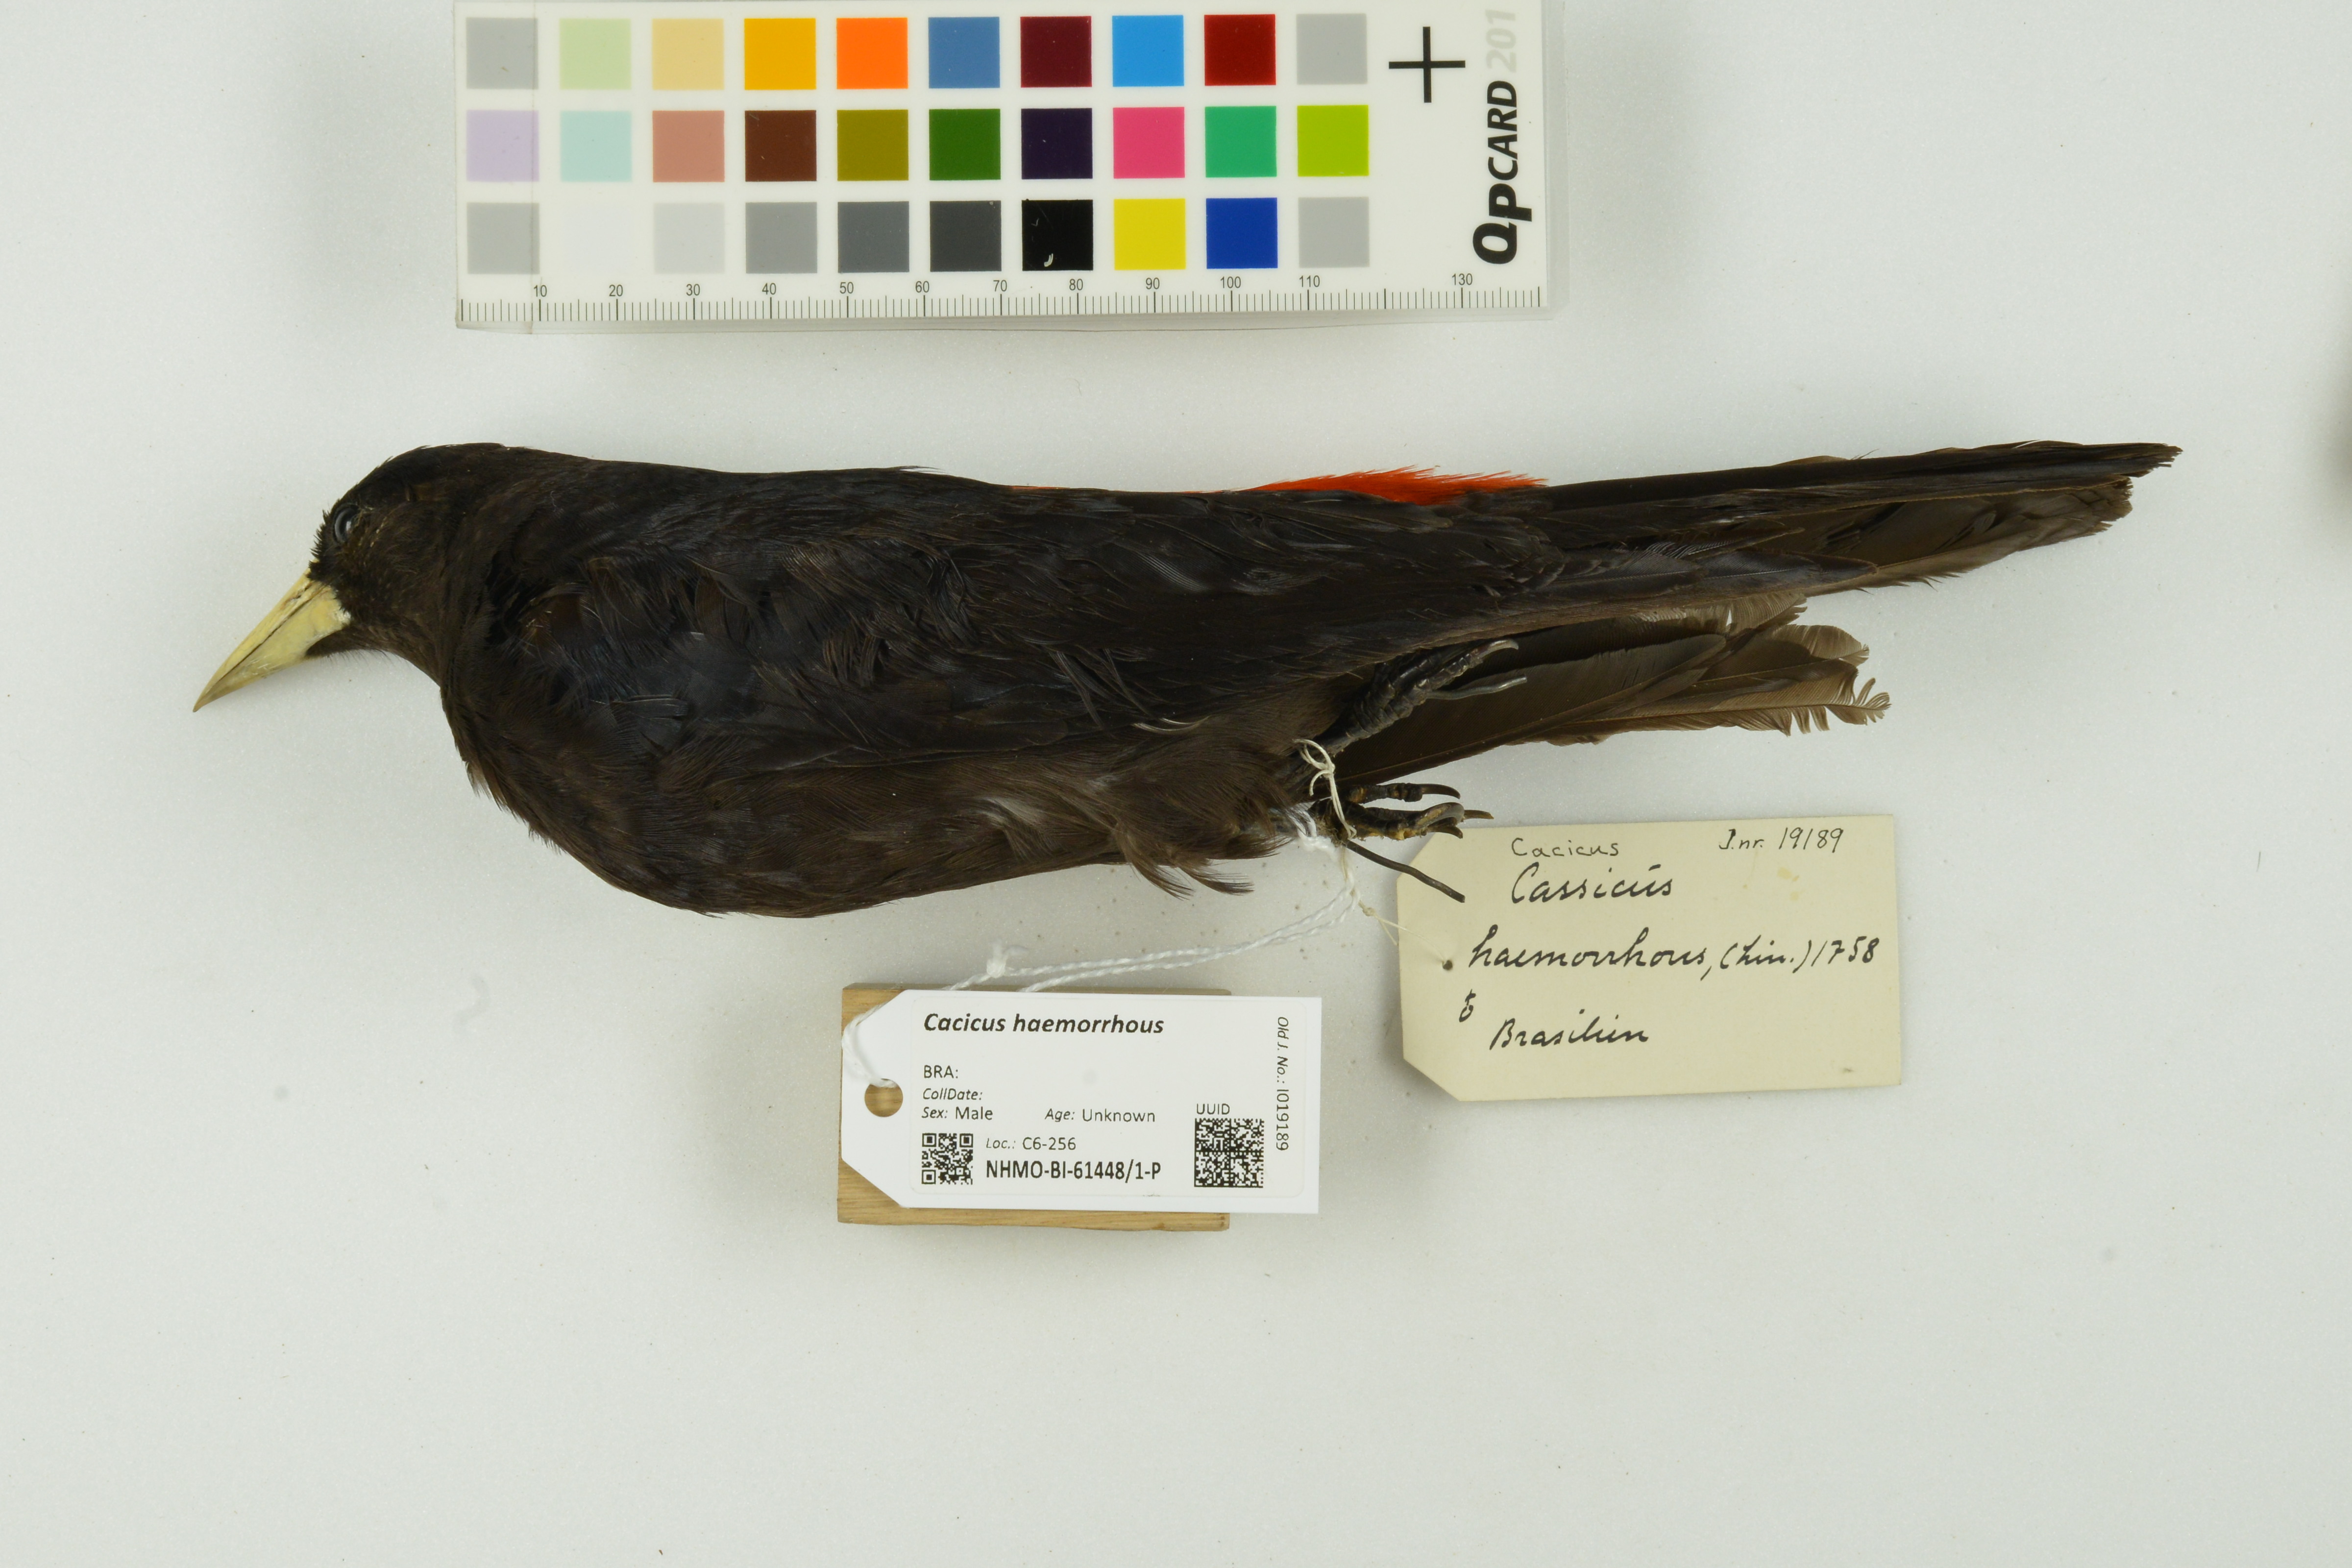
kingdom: Animalia
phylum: Chordata
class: Aves
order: Passeriformes
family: Icteridae
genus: Cacicus
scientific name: Cacicus haemorrhous
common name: Red-rumped cacique
